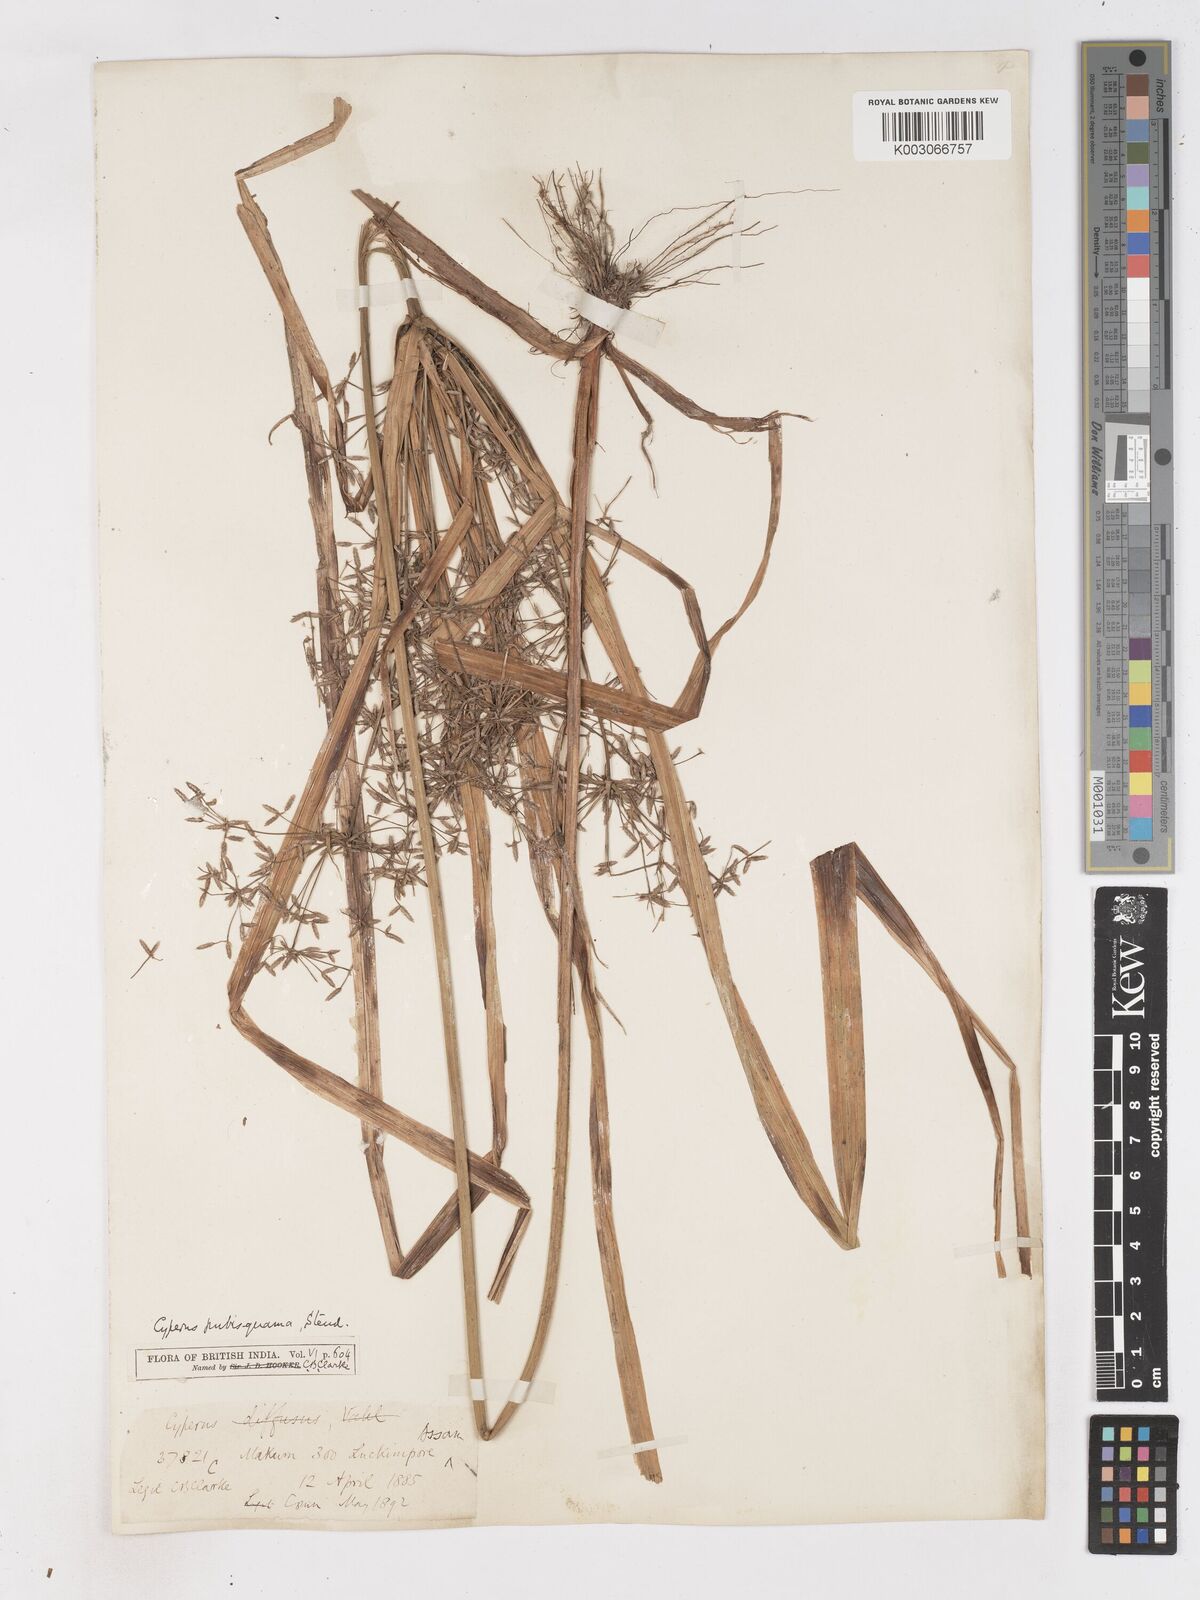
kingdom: Plantae
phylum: Tracheophyta
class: Liliopsida
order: Poales
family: Cyperaceae
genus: Cyperus
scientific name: Cyperus diffusus
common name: Dwarf umbrella grass
